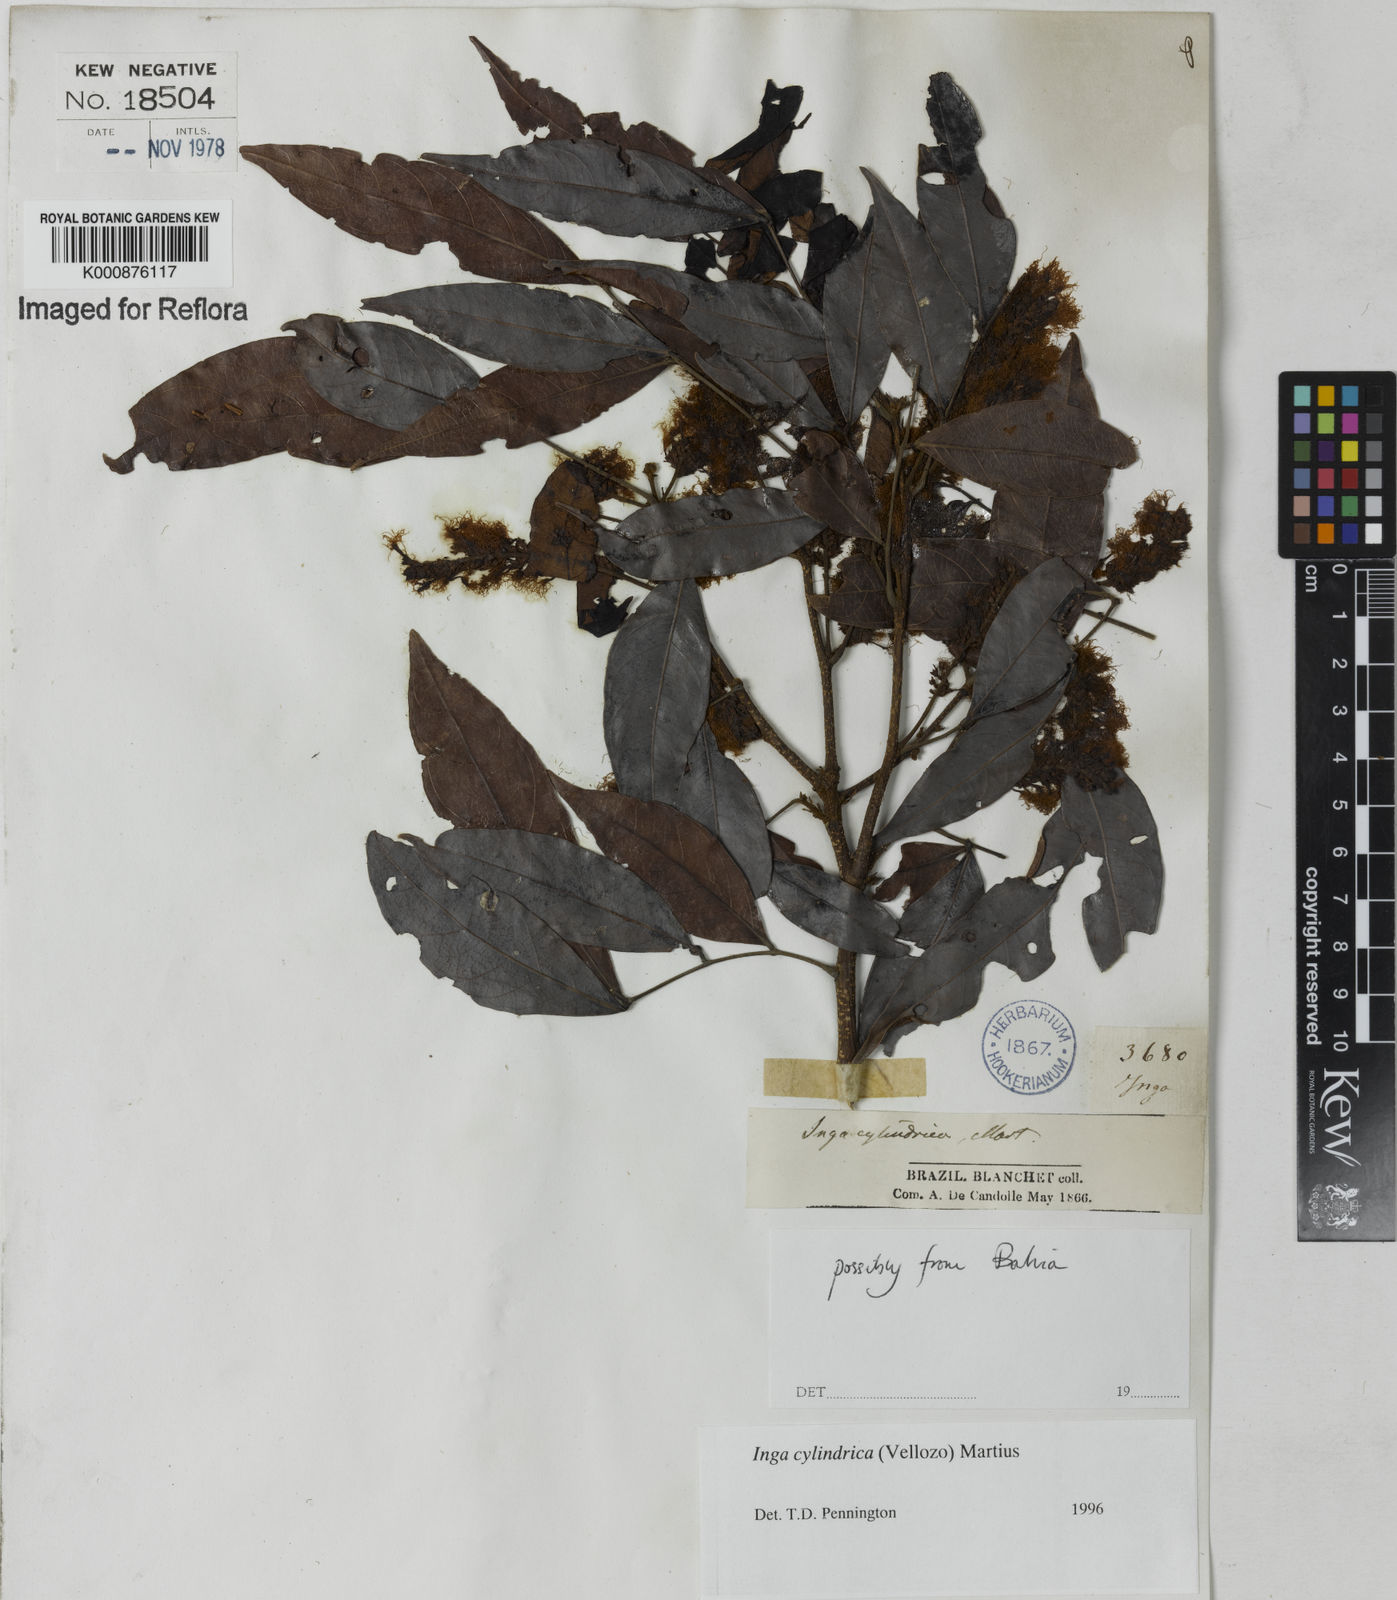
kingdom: Plantae
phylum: Tracheophyta
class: Magnoliopsida
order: Fabales
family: Fabaceae
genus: Inga
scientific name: Inga cylindrica
